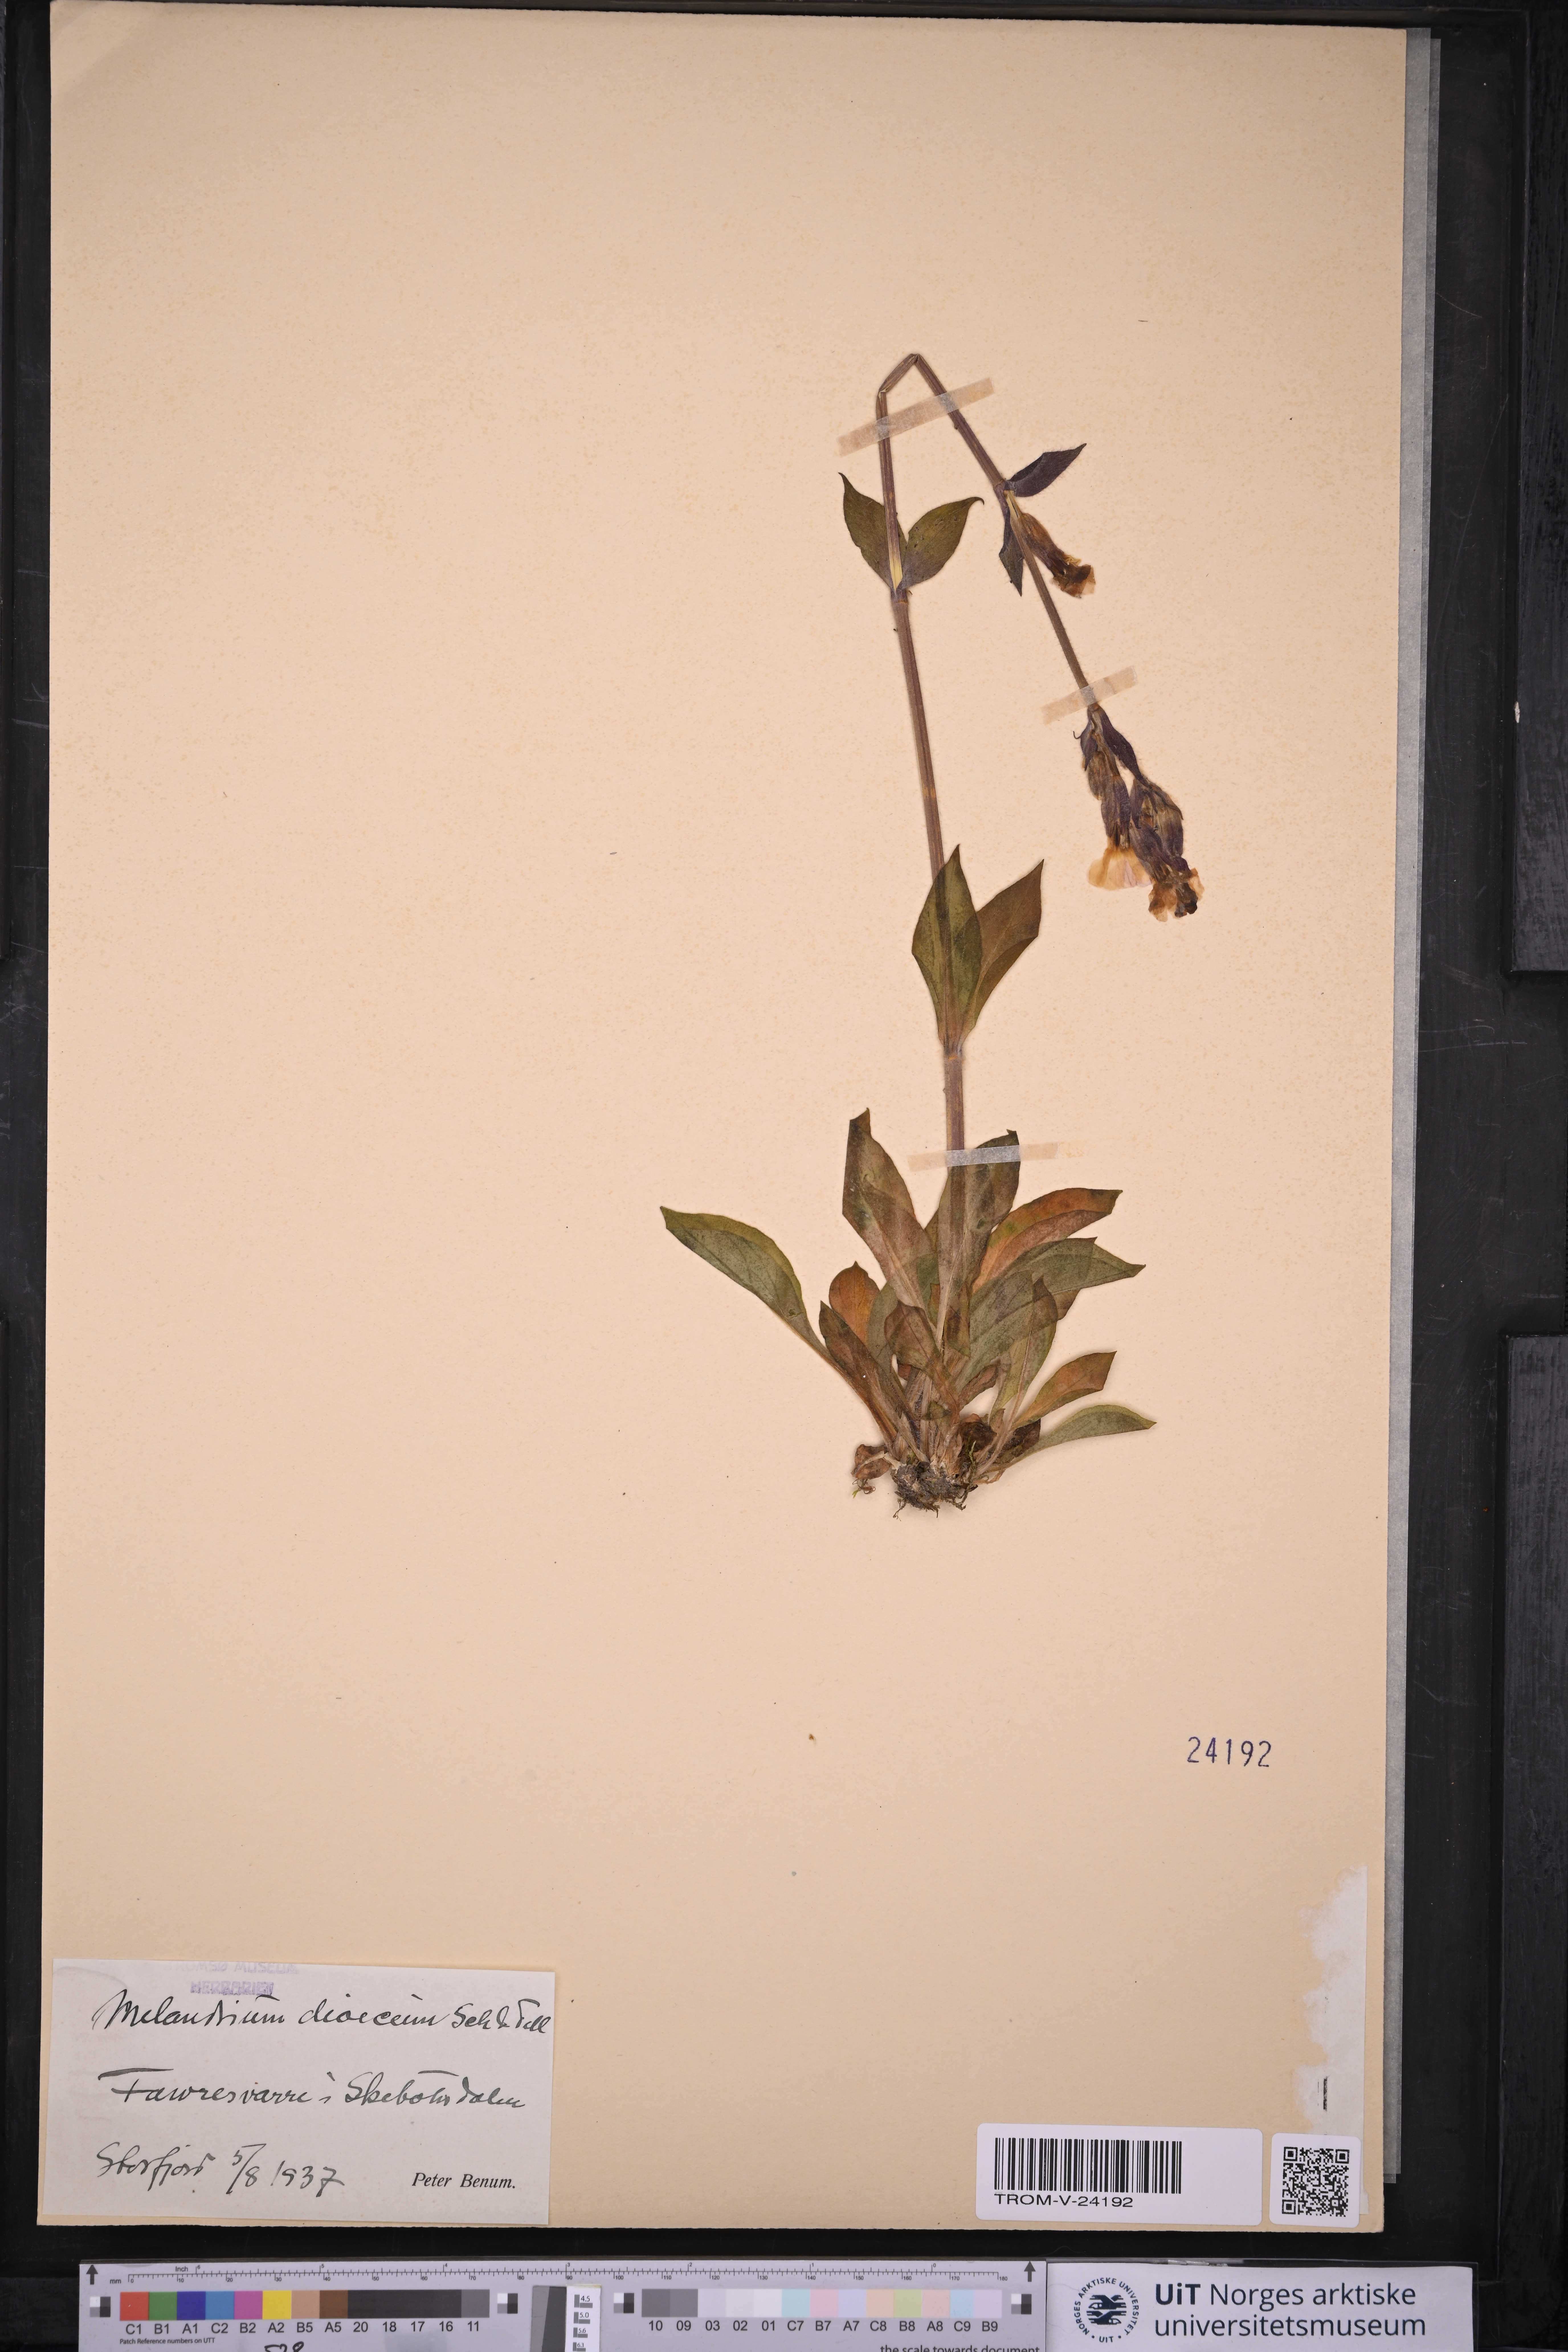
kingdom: Plantae
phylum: Tracheophyta
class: Magnoliopsida
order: Caryophyllales
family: Caryophyllaceae
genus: Silene
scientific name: Silene dioica
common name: Red campion
